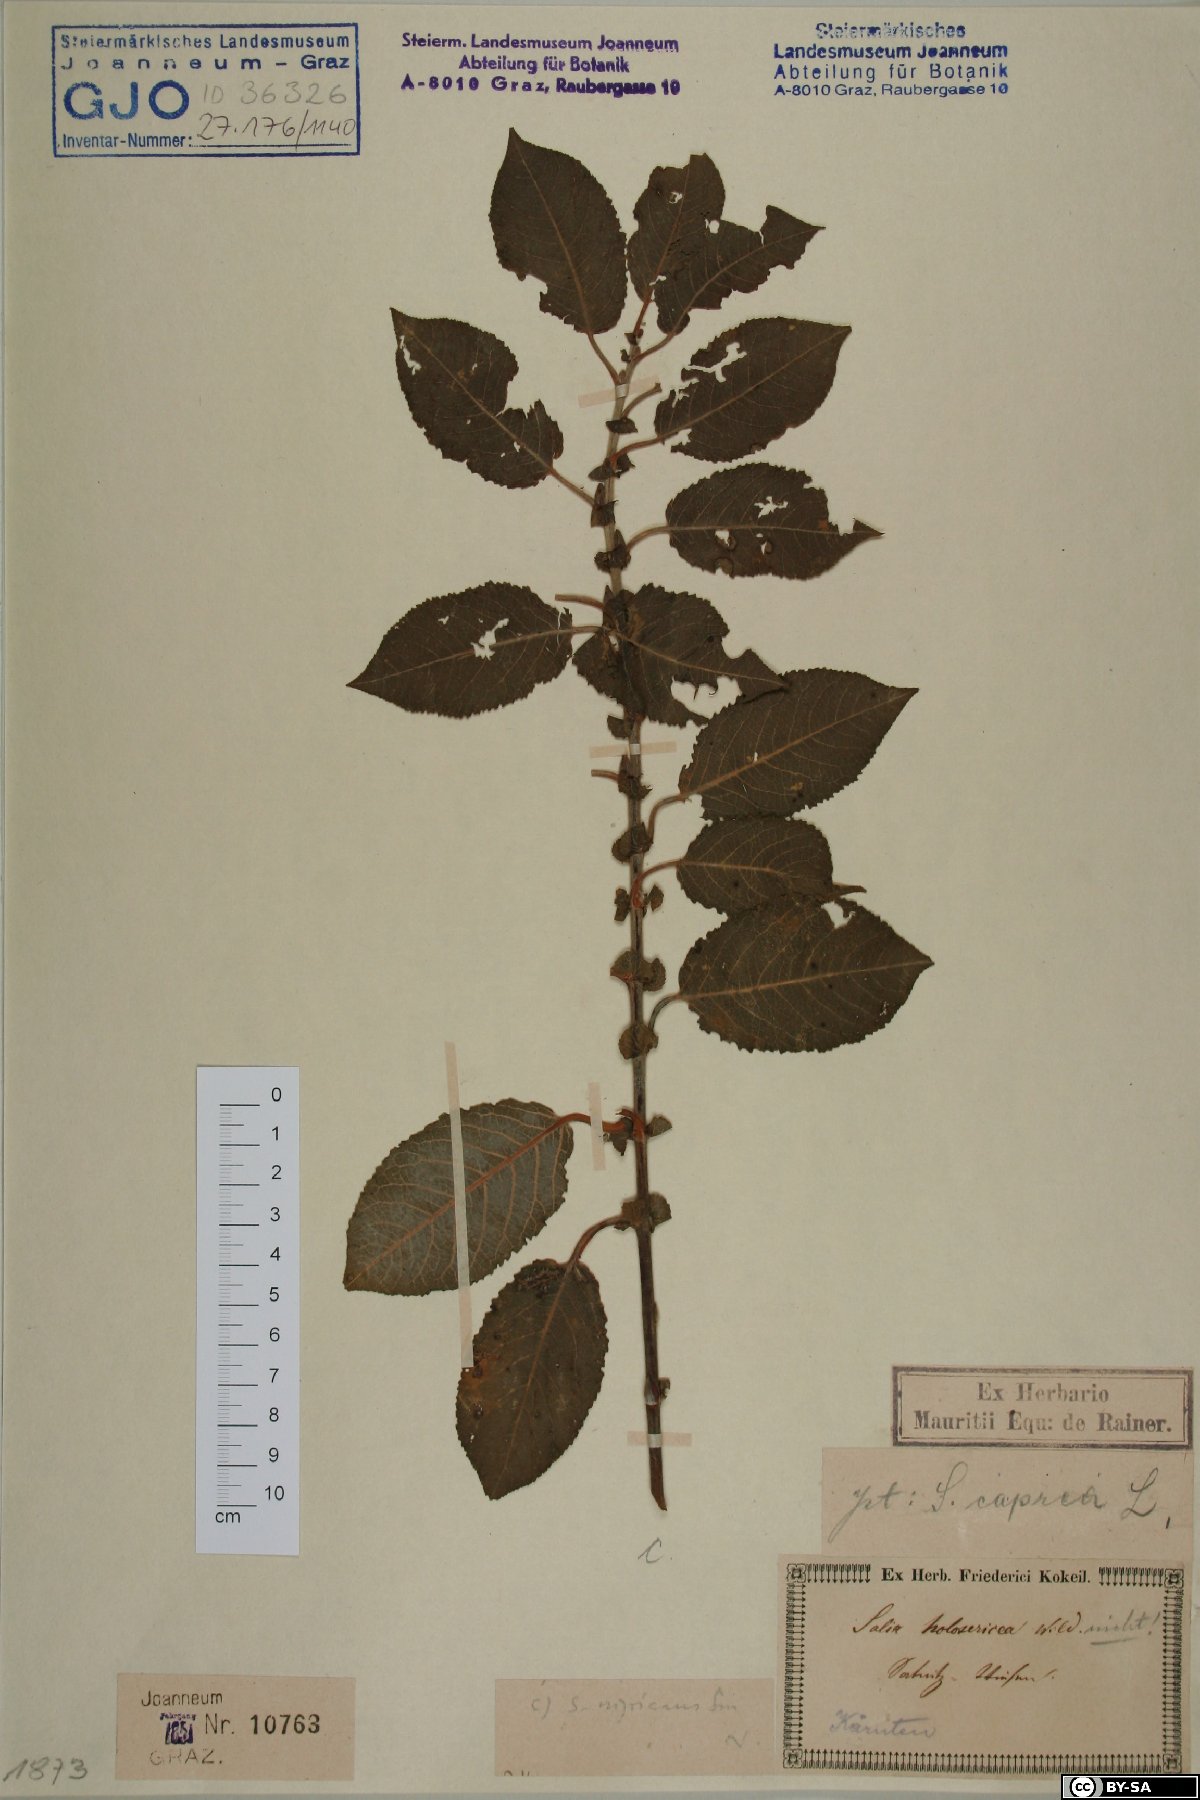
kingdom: Plantae
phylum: Tracheophyta
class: Magnoliopsida
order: Malpighiales
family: Salicaceae
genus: Salix
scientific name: Salix myrsinifolia
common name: Dark-leaved willow
